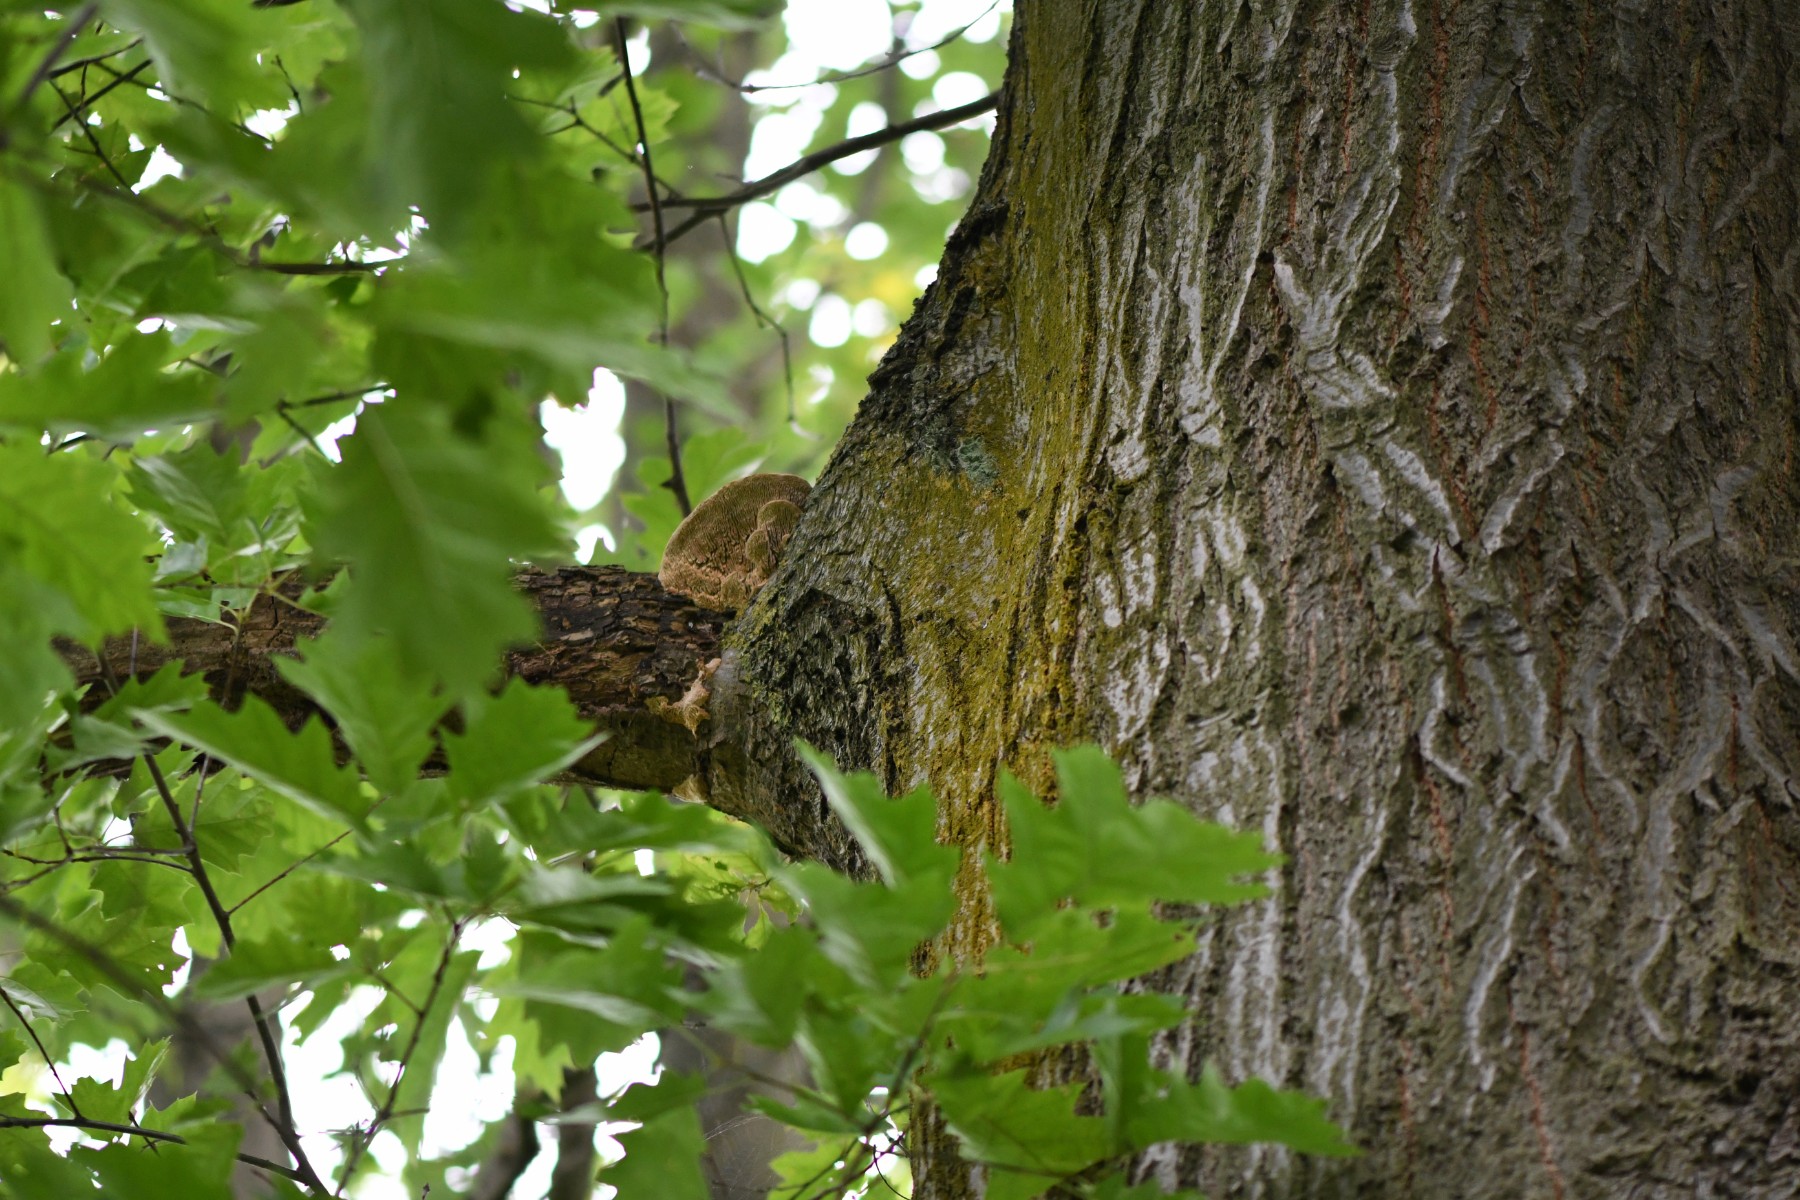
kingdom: Fungi
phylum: Basidiomycota
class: Agaricomycetes
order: Polyporales
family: Fomitopsidaceae
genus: Daedalea
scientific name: Daedalea quercina
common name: ege-labyrintsvamp
